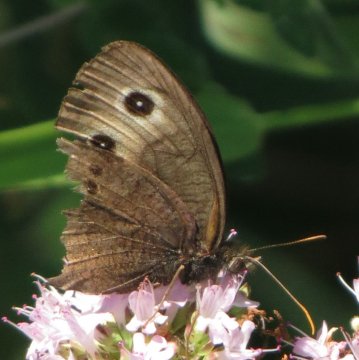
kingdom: Animalia
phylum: Arthropoda
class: Insecta
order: Lepidoptera
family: Nymphalidae
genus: Cercyonis
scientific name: Cercyonis pegala
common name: Common Wood-Nymph
